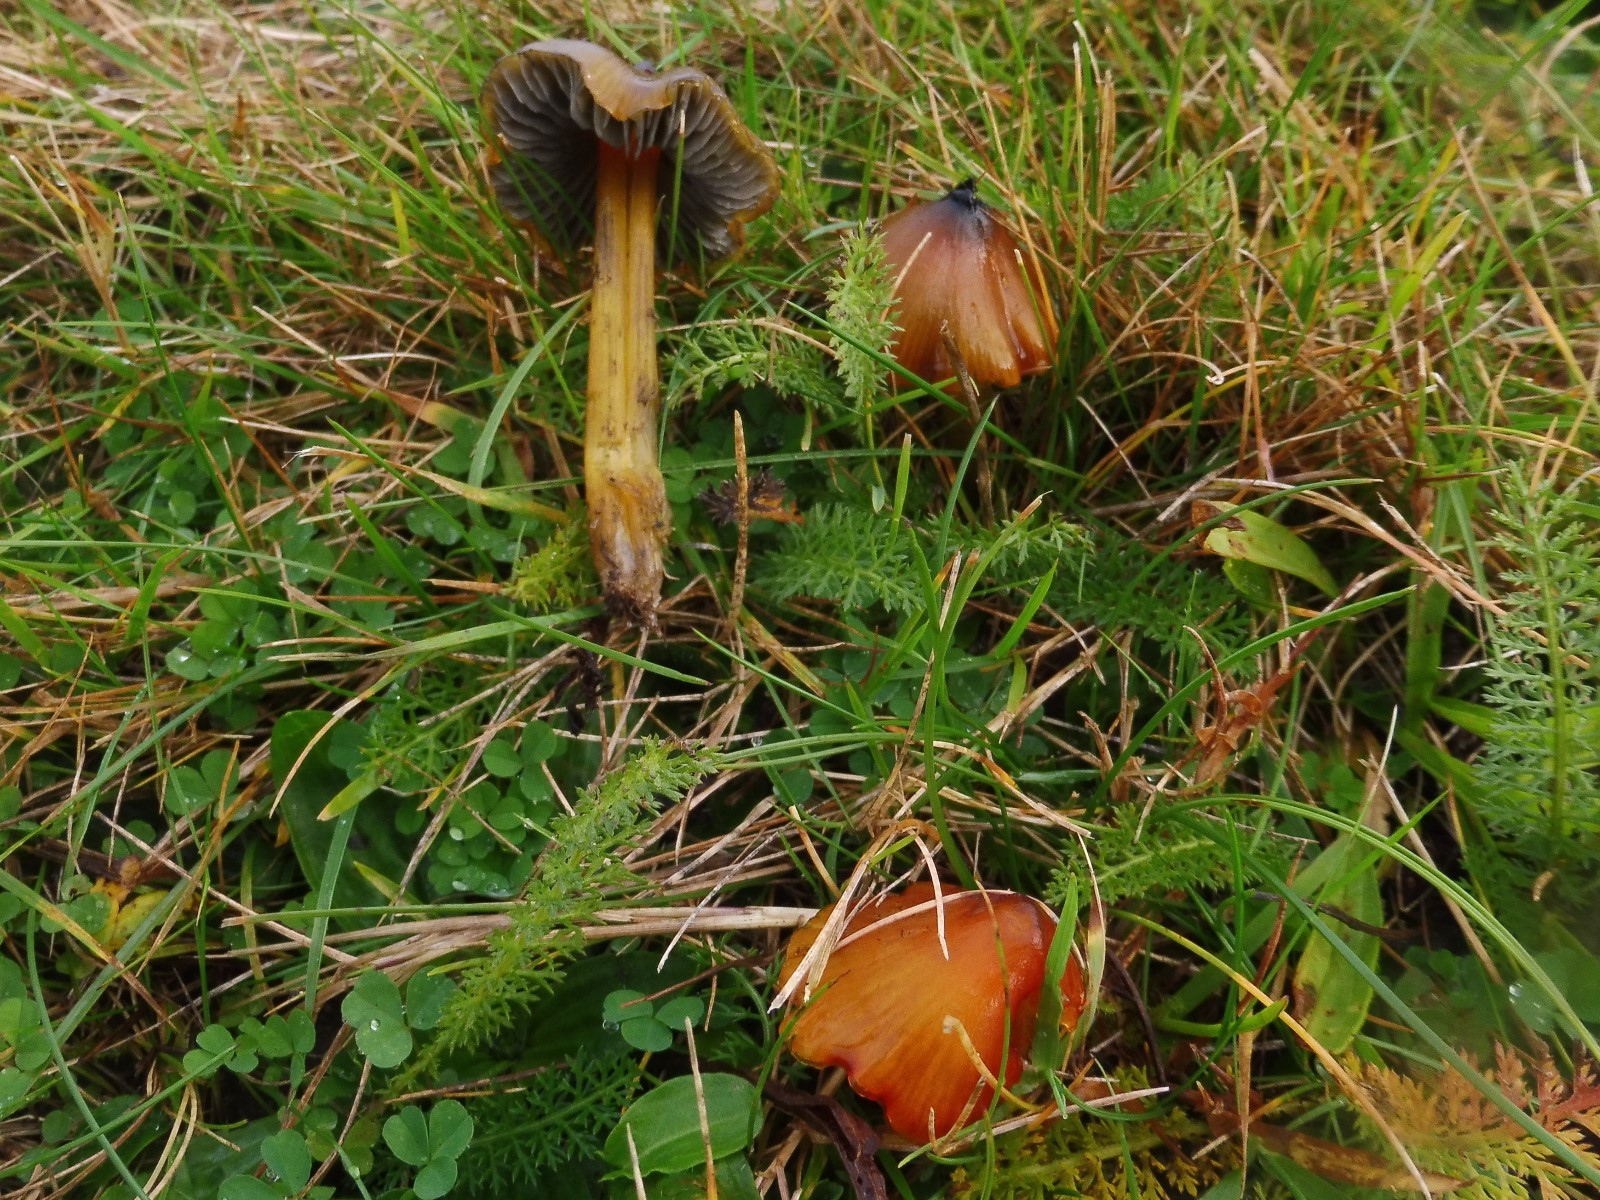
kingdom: Fungi
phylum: Basidiomycota
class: Agaricomycetes
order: Agaricales
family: Hygrophoraceae
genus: Hygrocybe
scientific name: Hygrocybe conica
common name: kegle-vokshat
